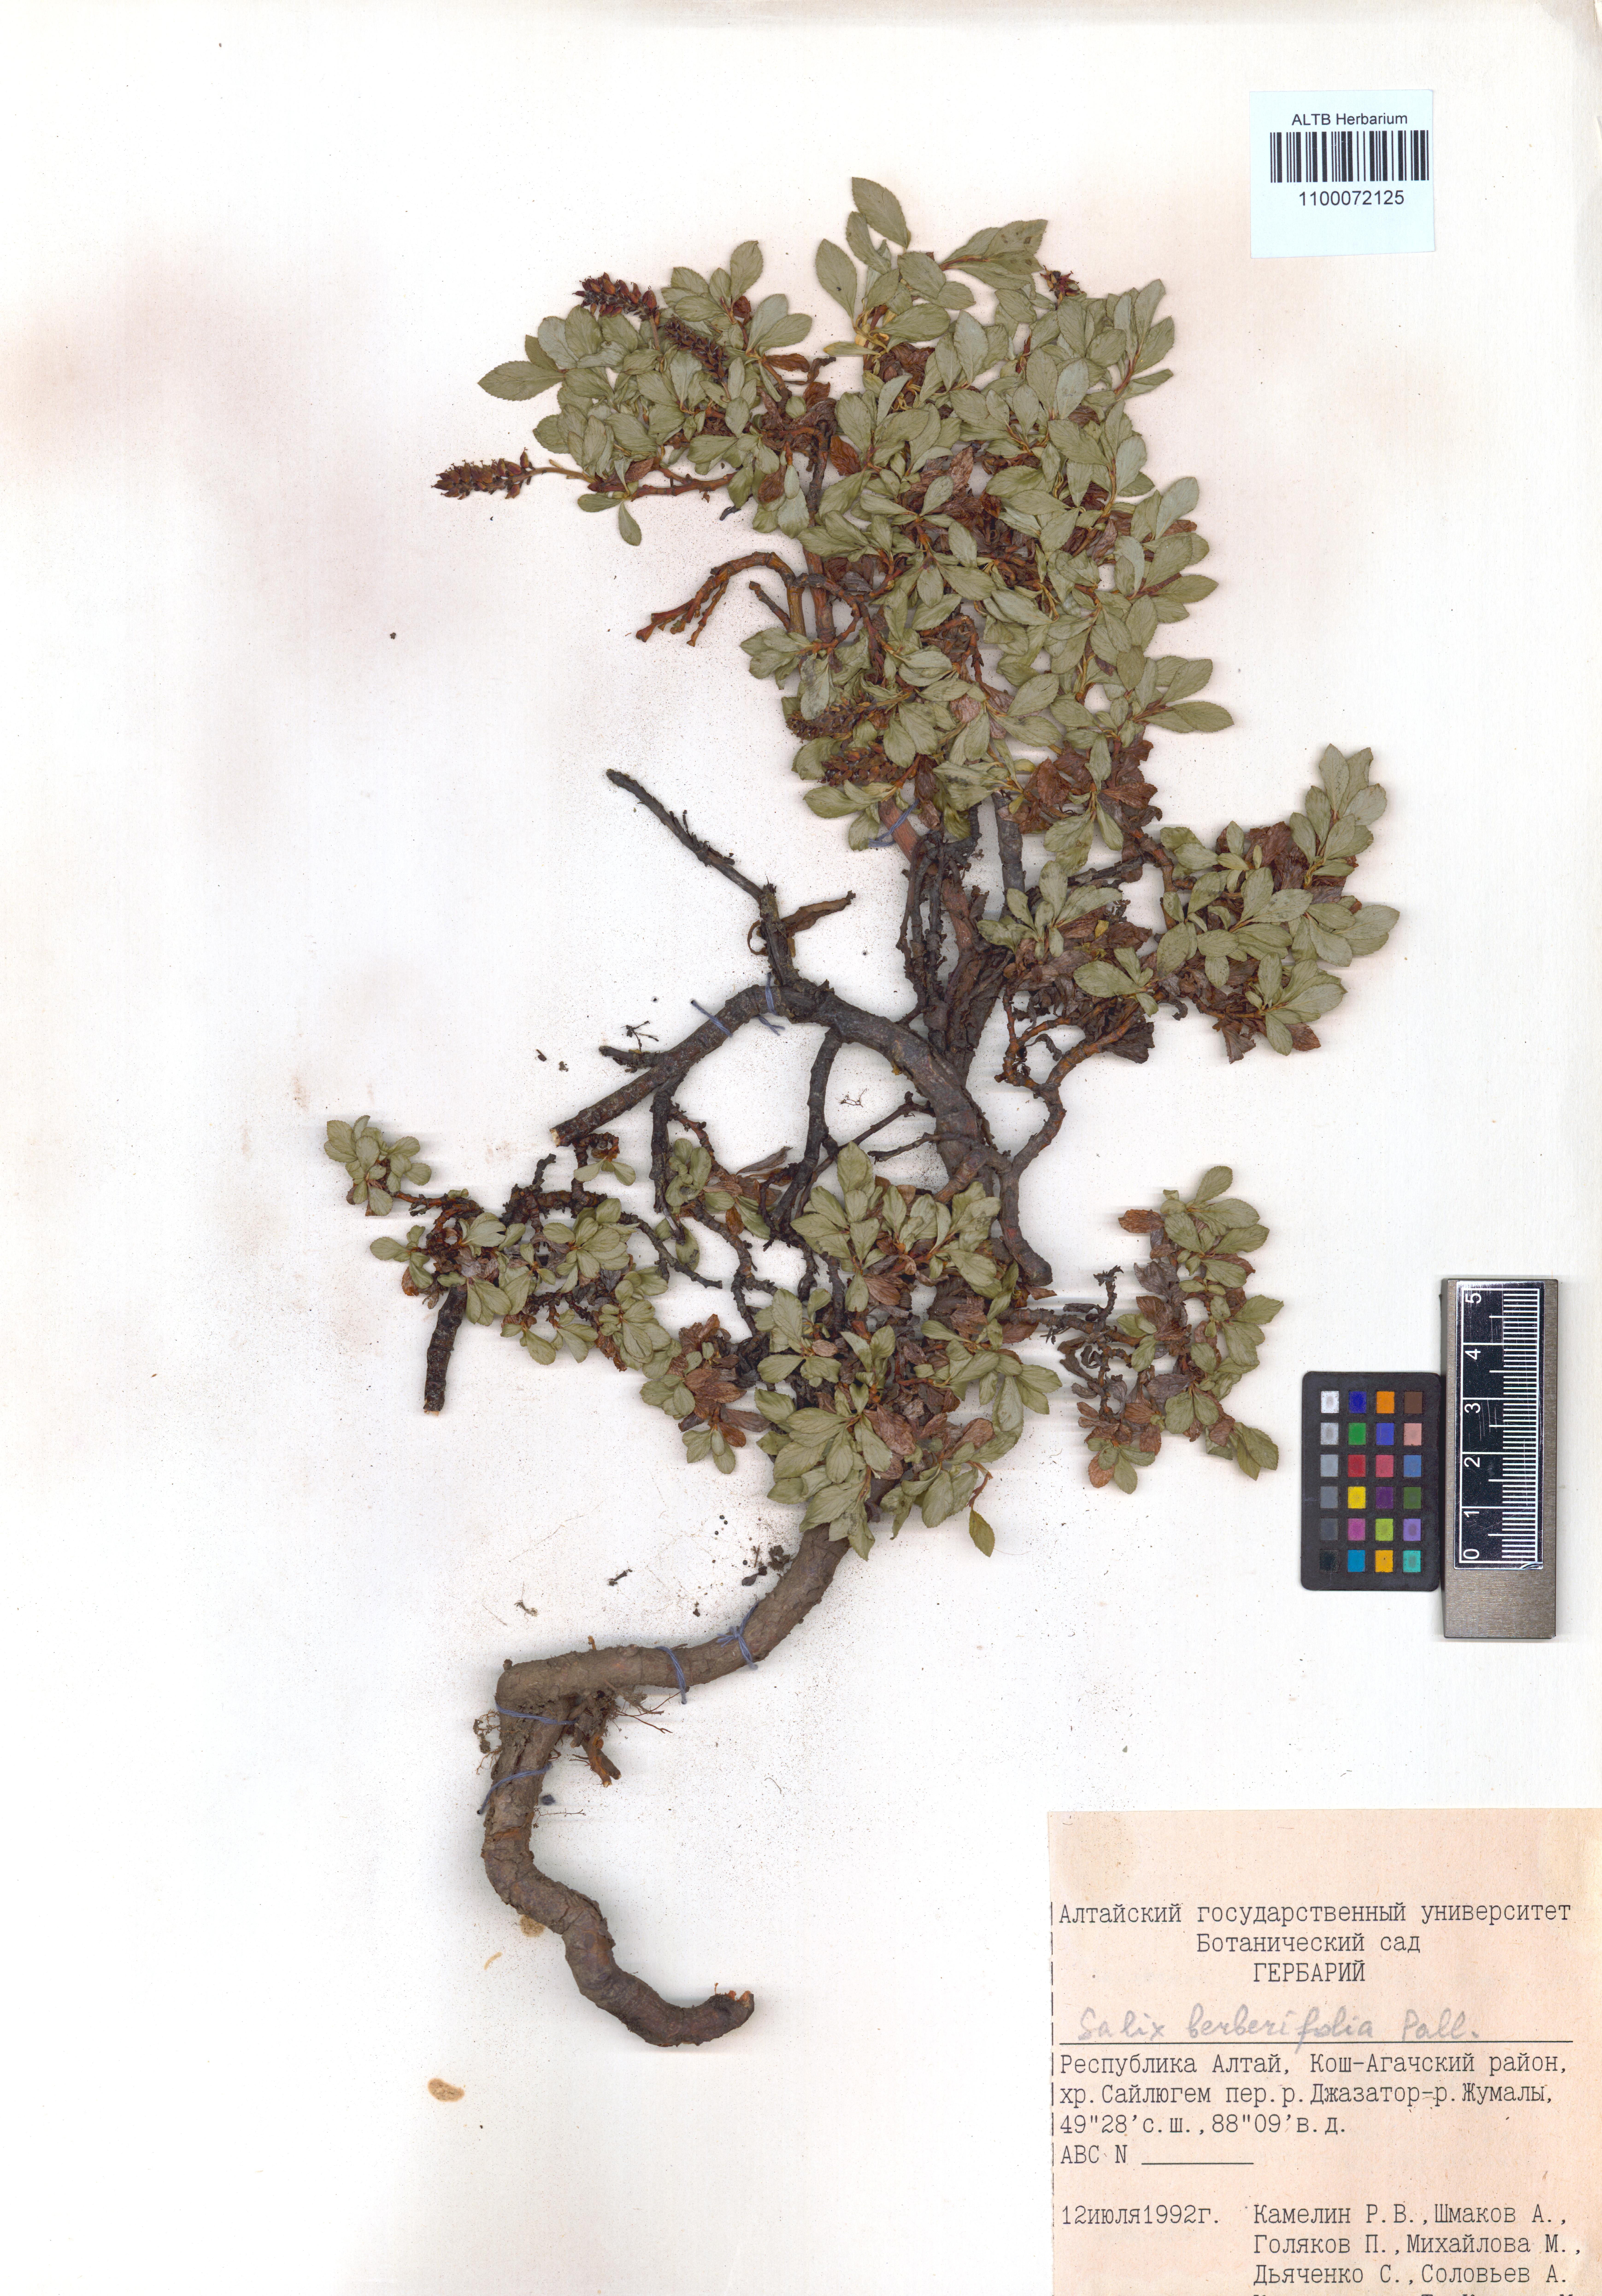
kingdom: Plantae
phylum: Tracheophyta
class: Magnoliopsida
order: Malpighiales
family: Salicaceae
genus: Salix
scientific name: Salix berberifolia
